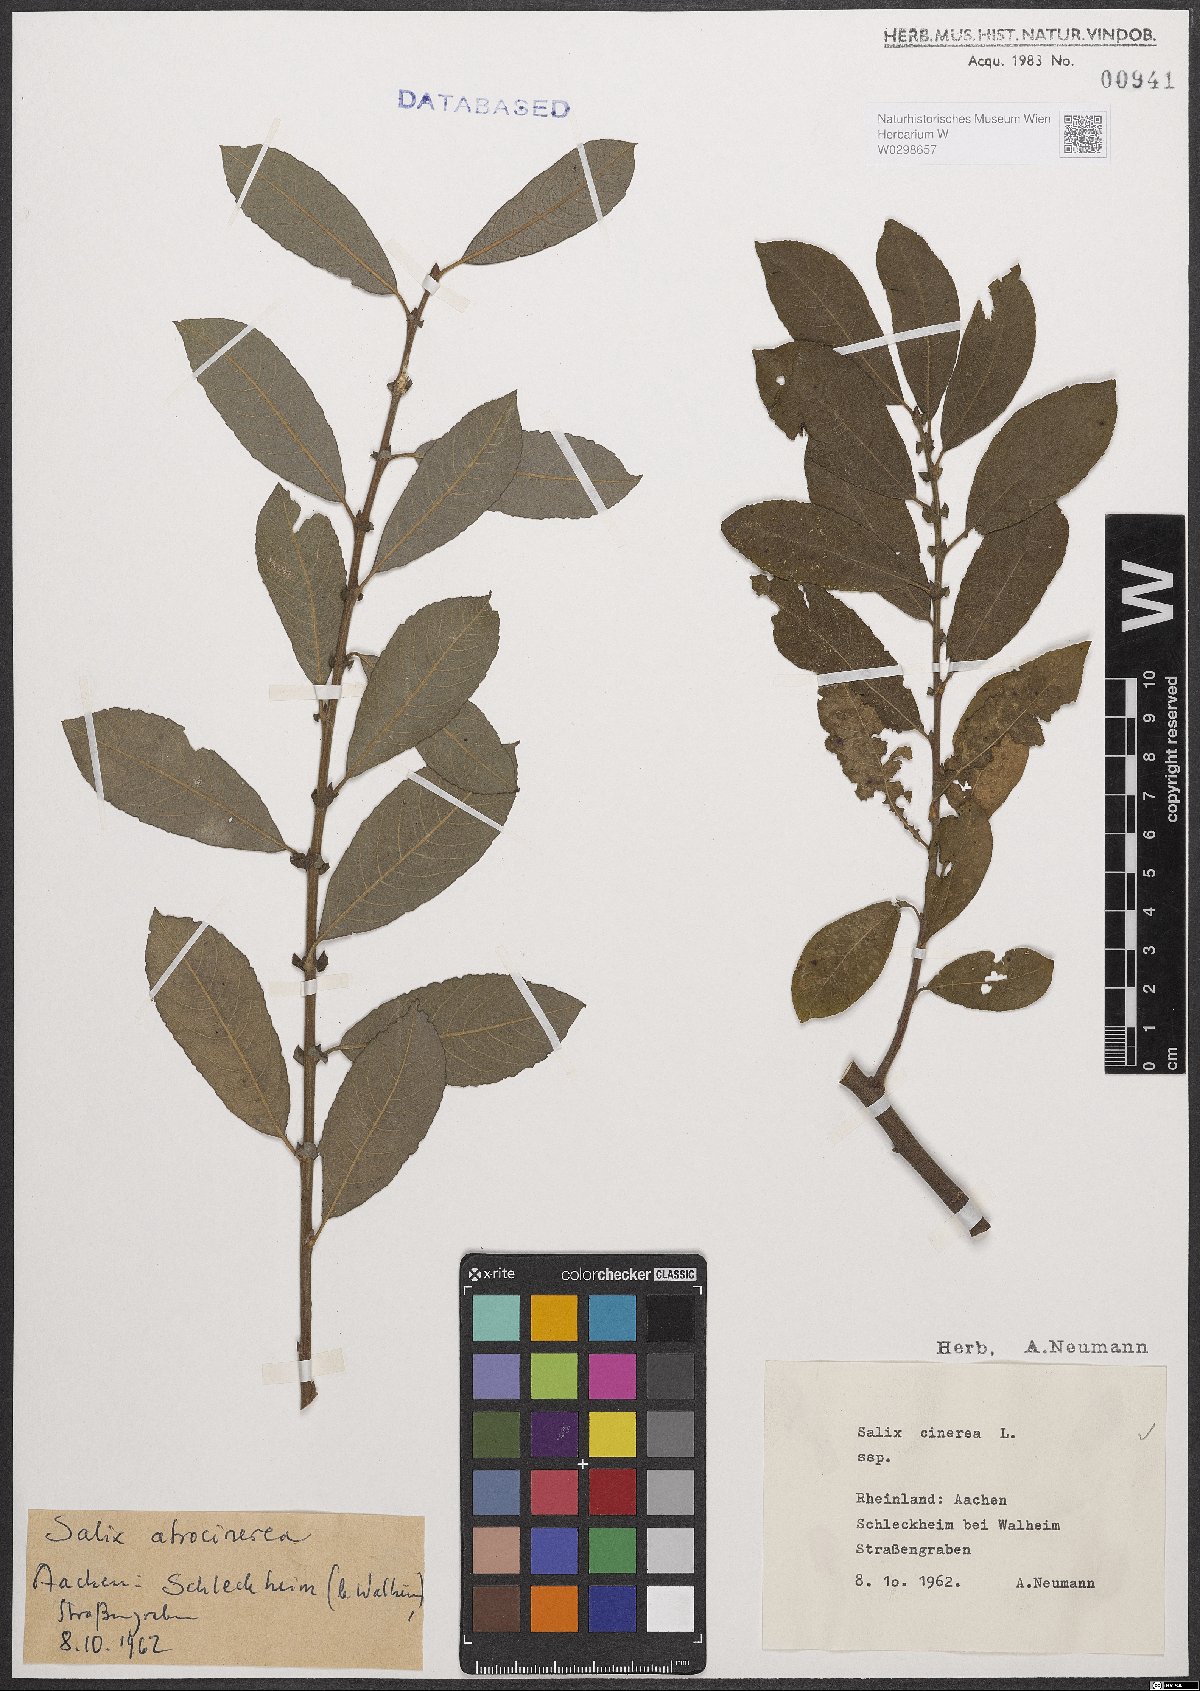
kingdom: Plantae
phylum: Tracheophyta
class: Magnoliopsida
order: Malpighiales
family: Salicaceae
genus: Salix
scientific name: Salix cinerea
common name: Common sallow
